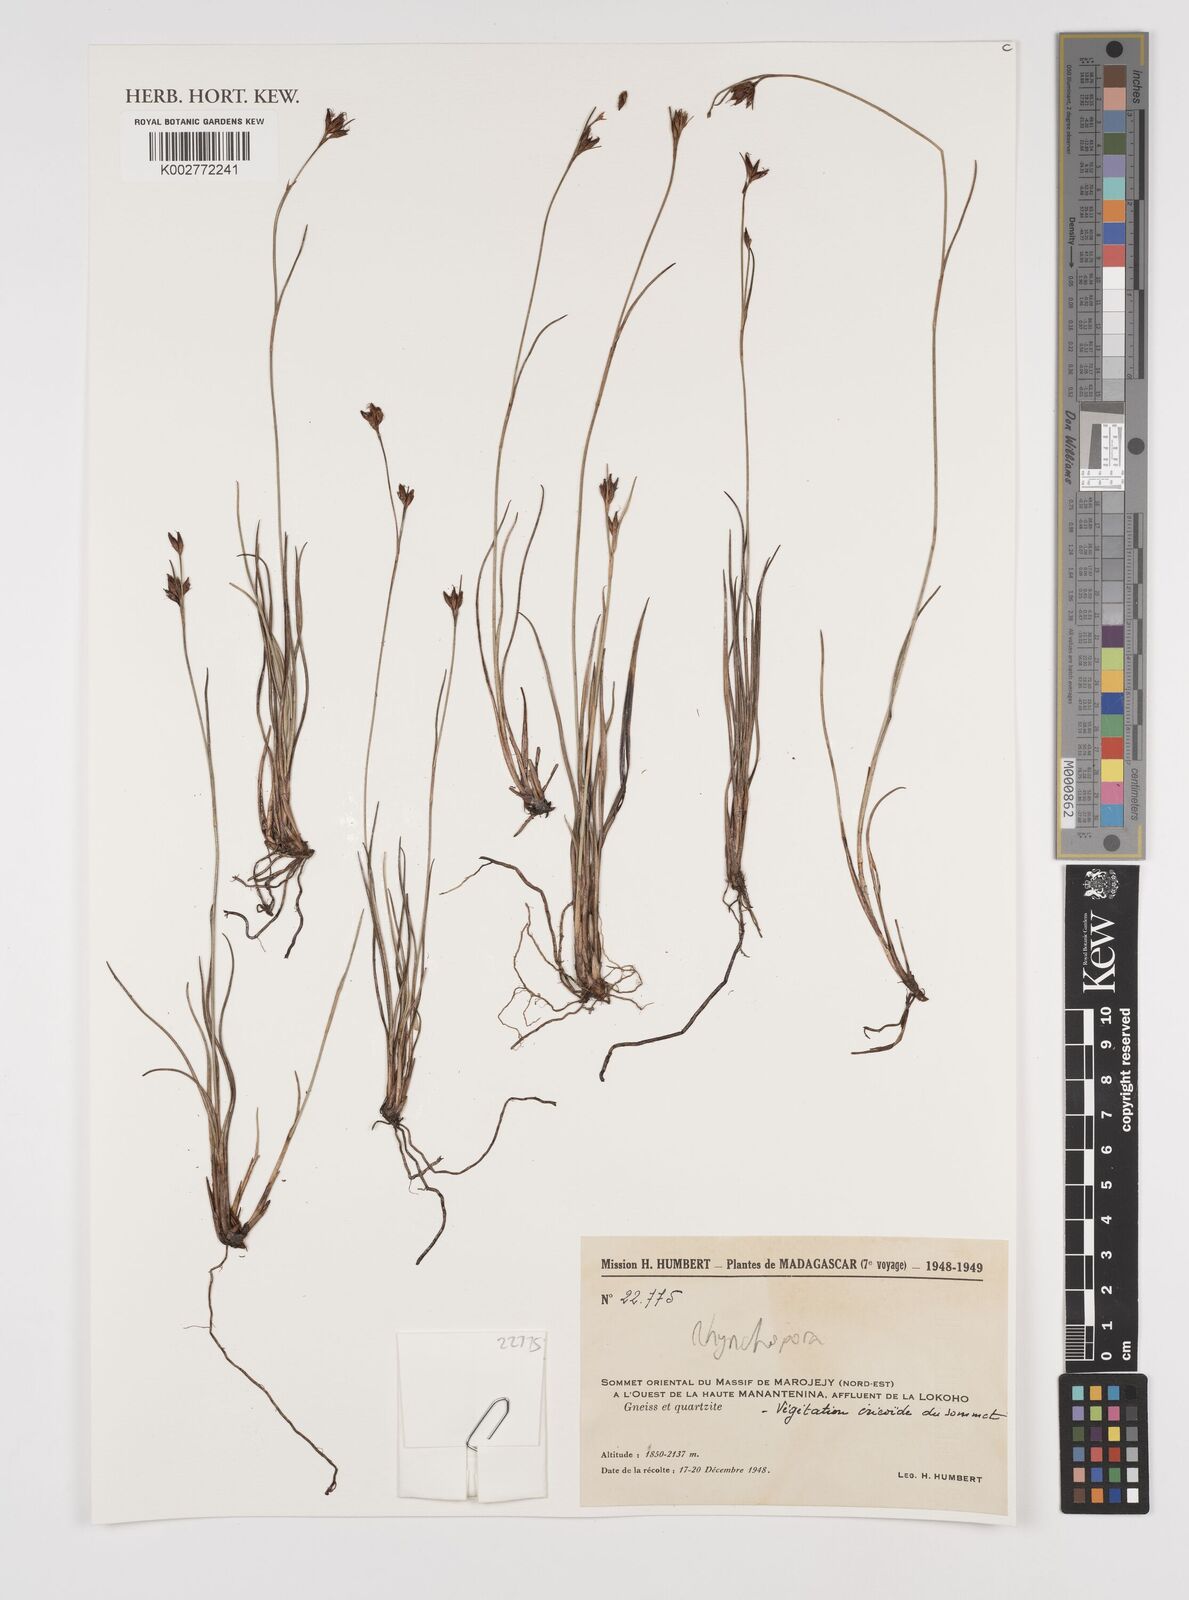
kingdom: Plantae
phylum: Tracheophyta
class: Liliopsida
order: Poales
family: Cyperaceae
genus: Rhynchospora
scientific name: Rhynchospora
